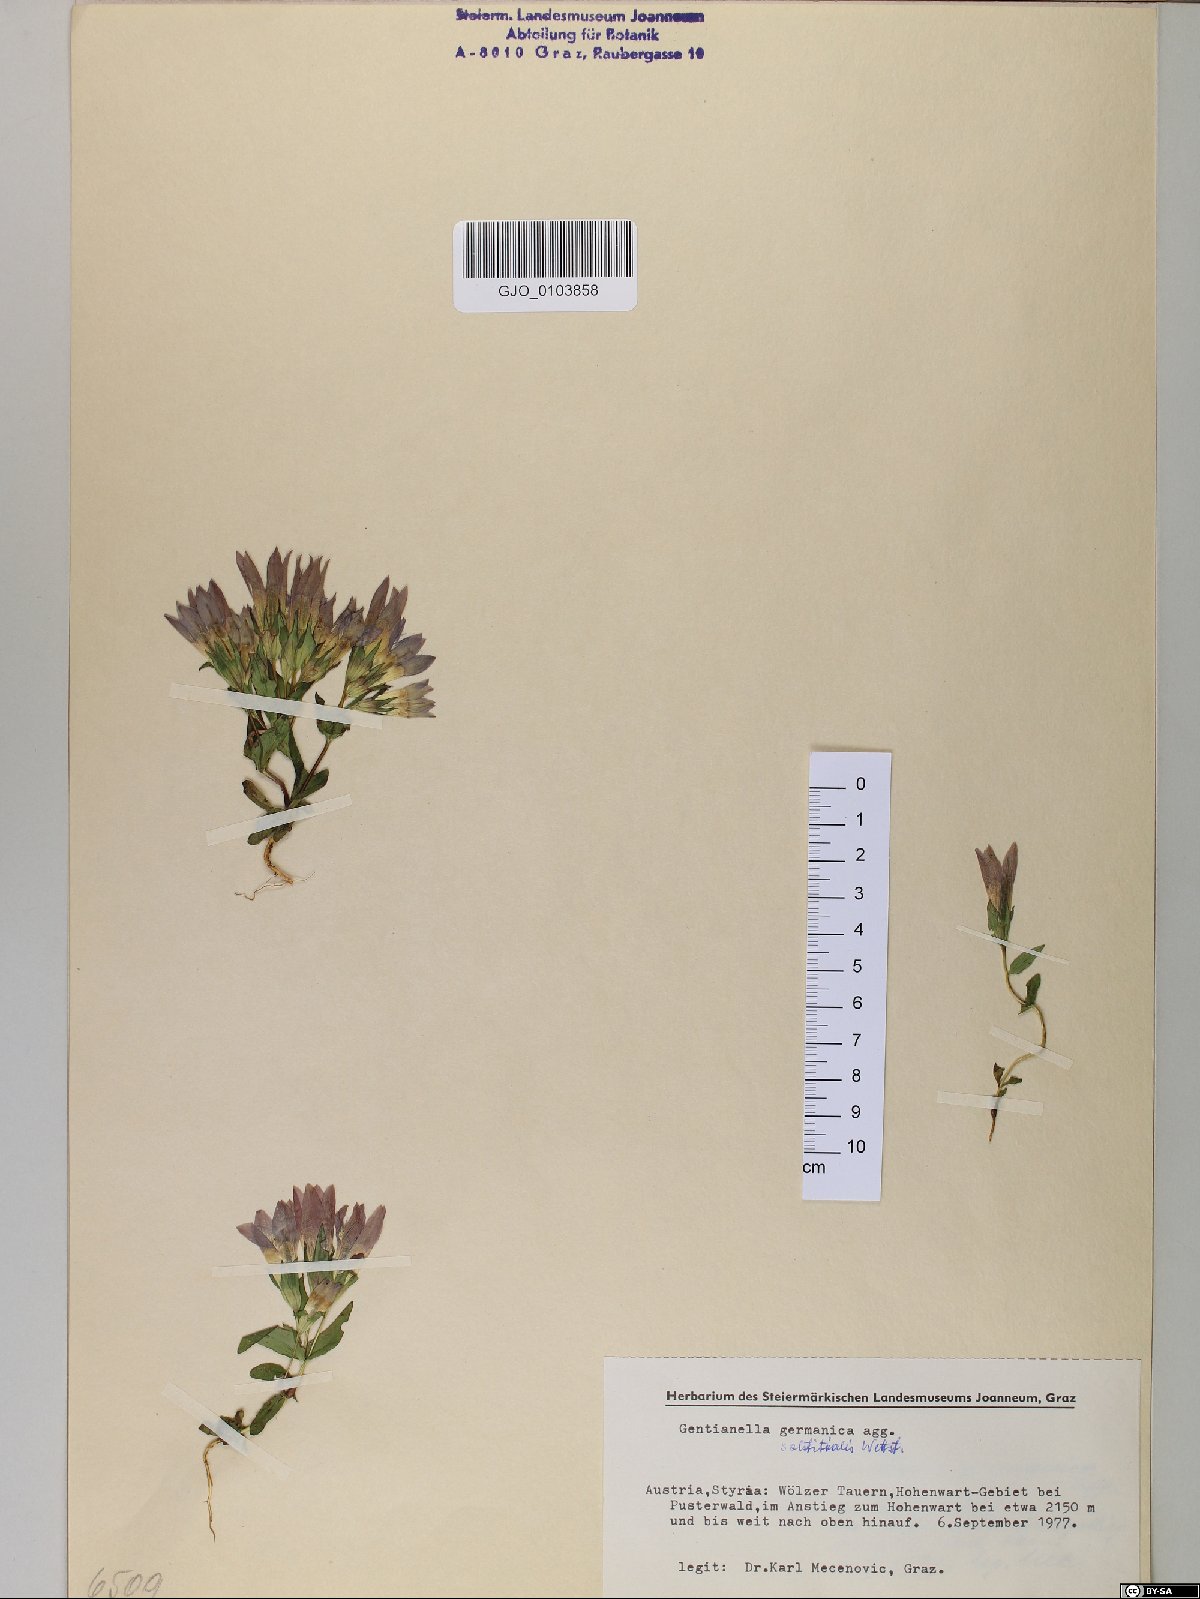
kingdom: Plantae
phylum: Tracheophyta
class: Magnoliopsida
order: Gentianales
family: Gentianaceae
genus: Gentianella
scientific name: Gentianella germanica
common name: Chiltern-gentian
